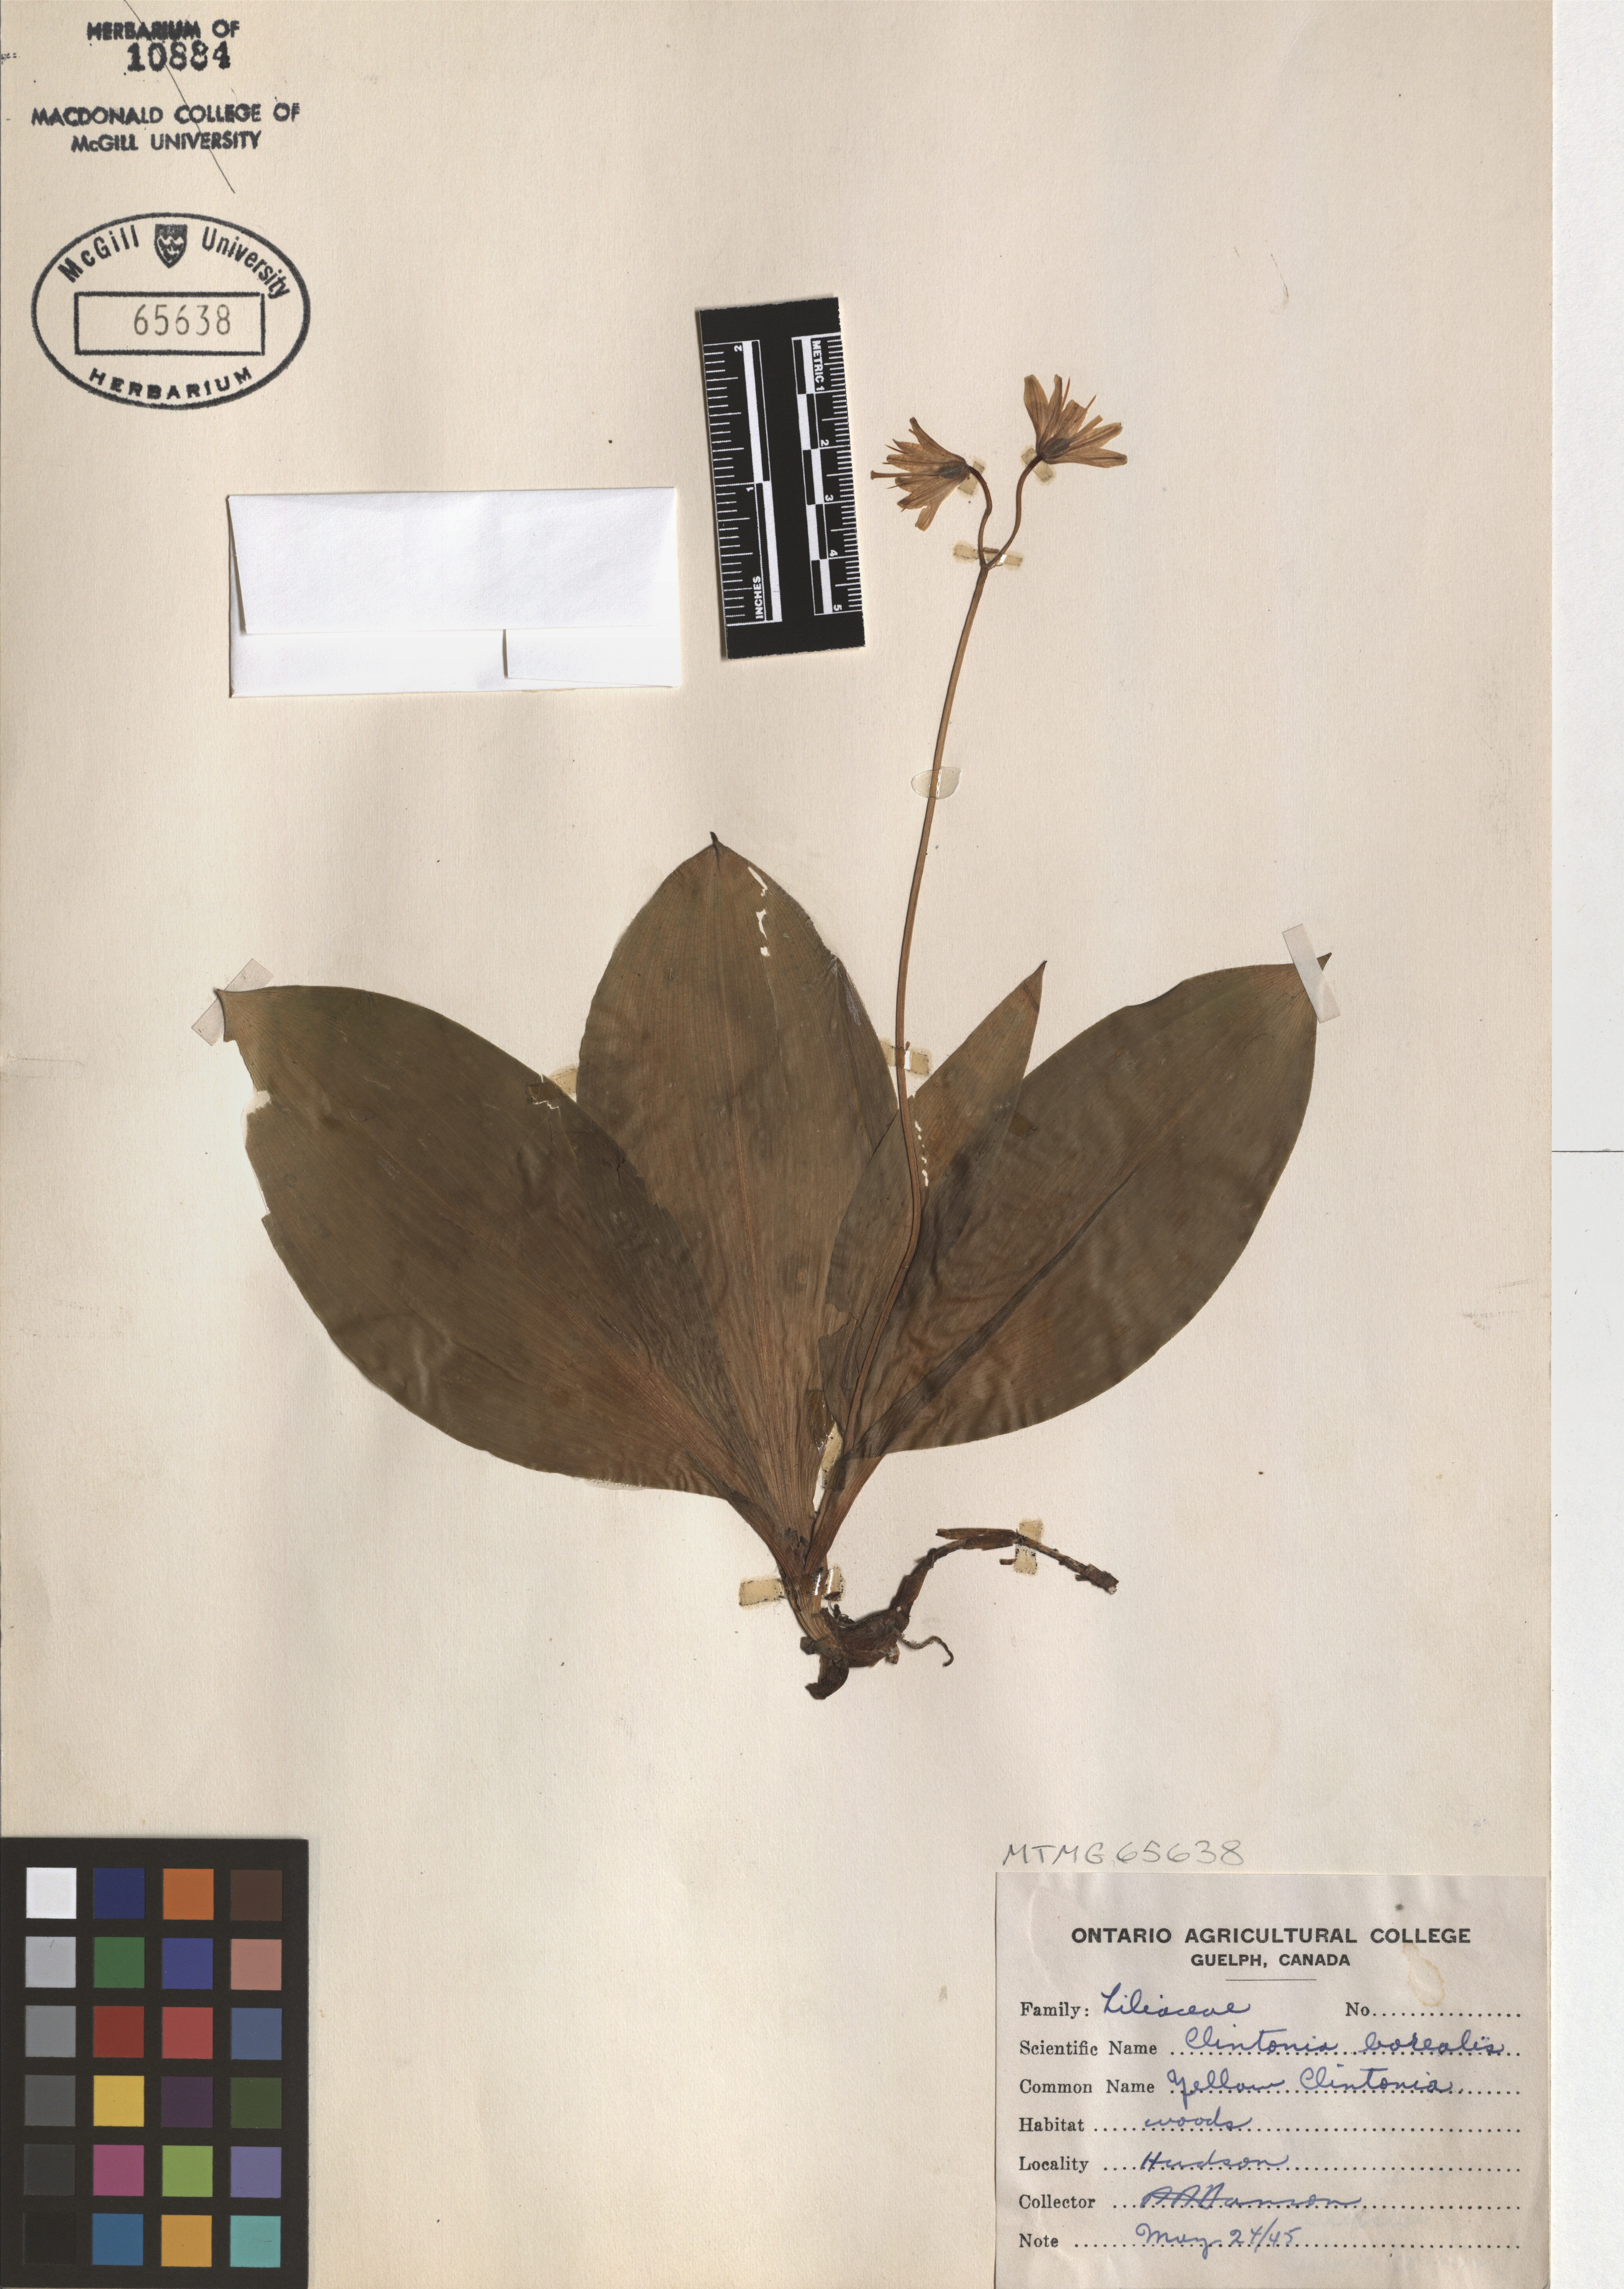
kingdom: Plantae
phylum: Tracheophyta
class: Liliopsida
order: Liliales
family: Liliaceae
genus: Clintonia
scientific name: Clintonia borealis
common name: Yellow clintonia
